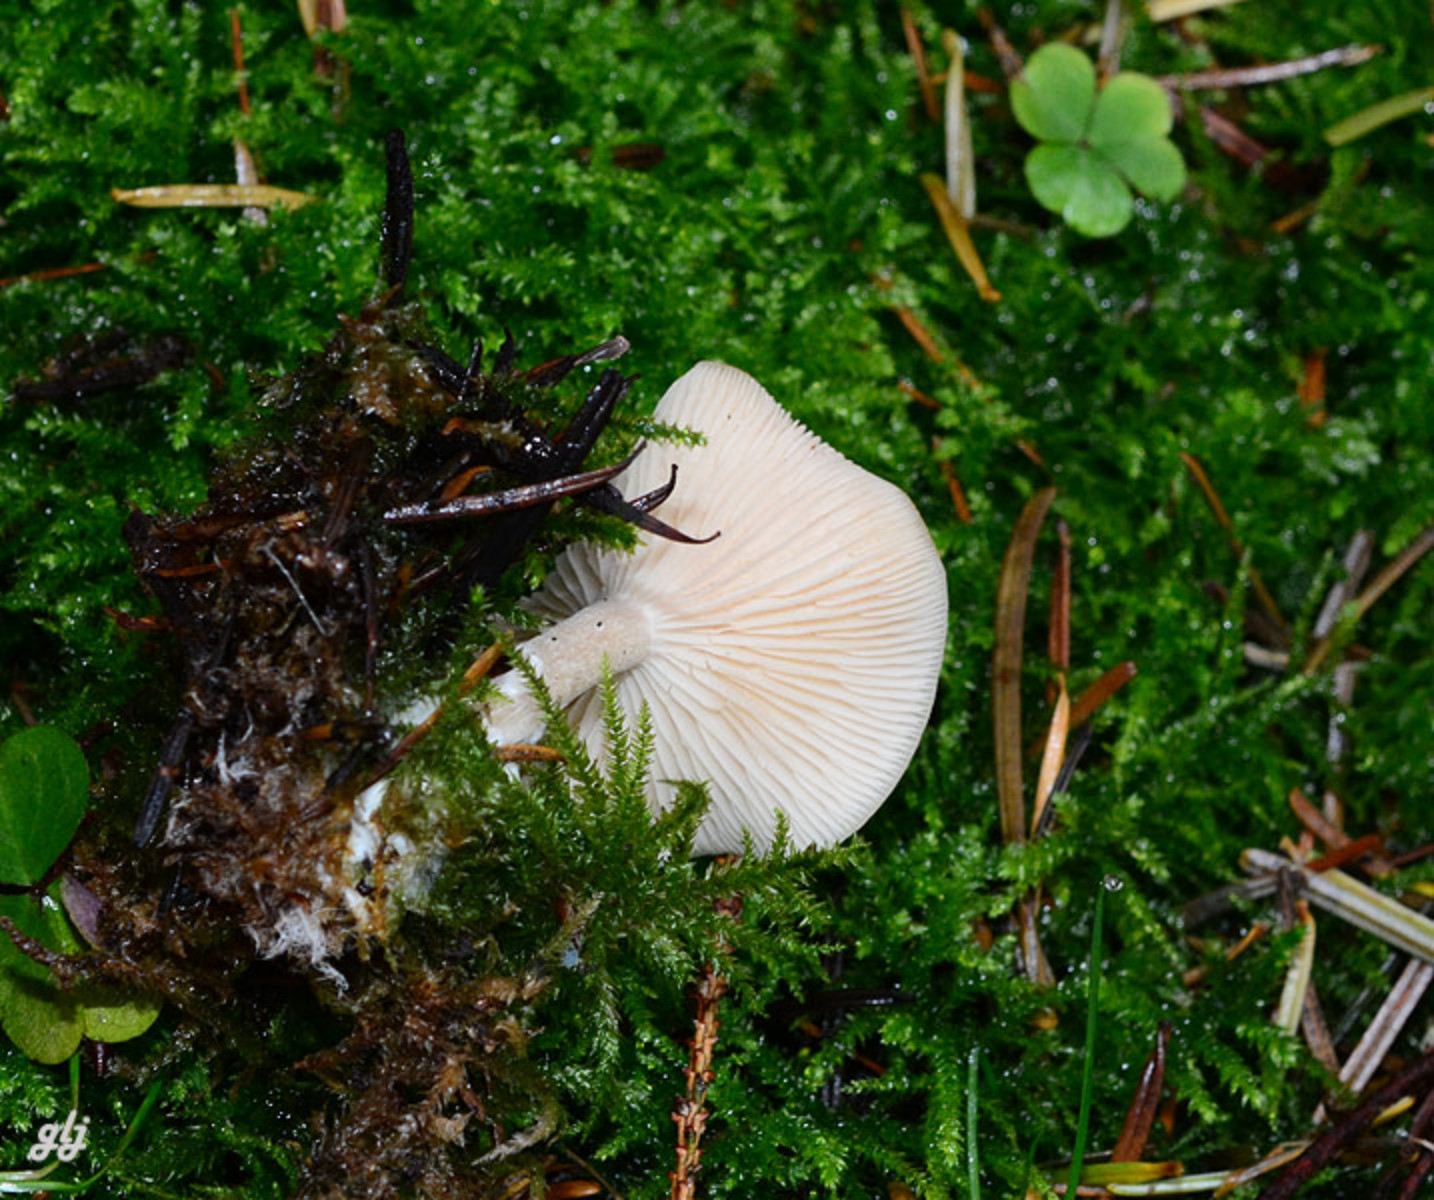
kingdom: Fungi
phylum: Basidiomycota
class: Agaricomycetes
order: Agaricales
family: Tricholomataceae
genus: Clitocybe
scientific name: Clitocybe fragrans
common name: vellugtende tragthat
